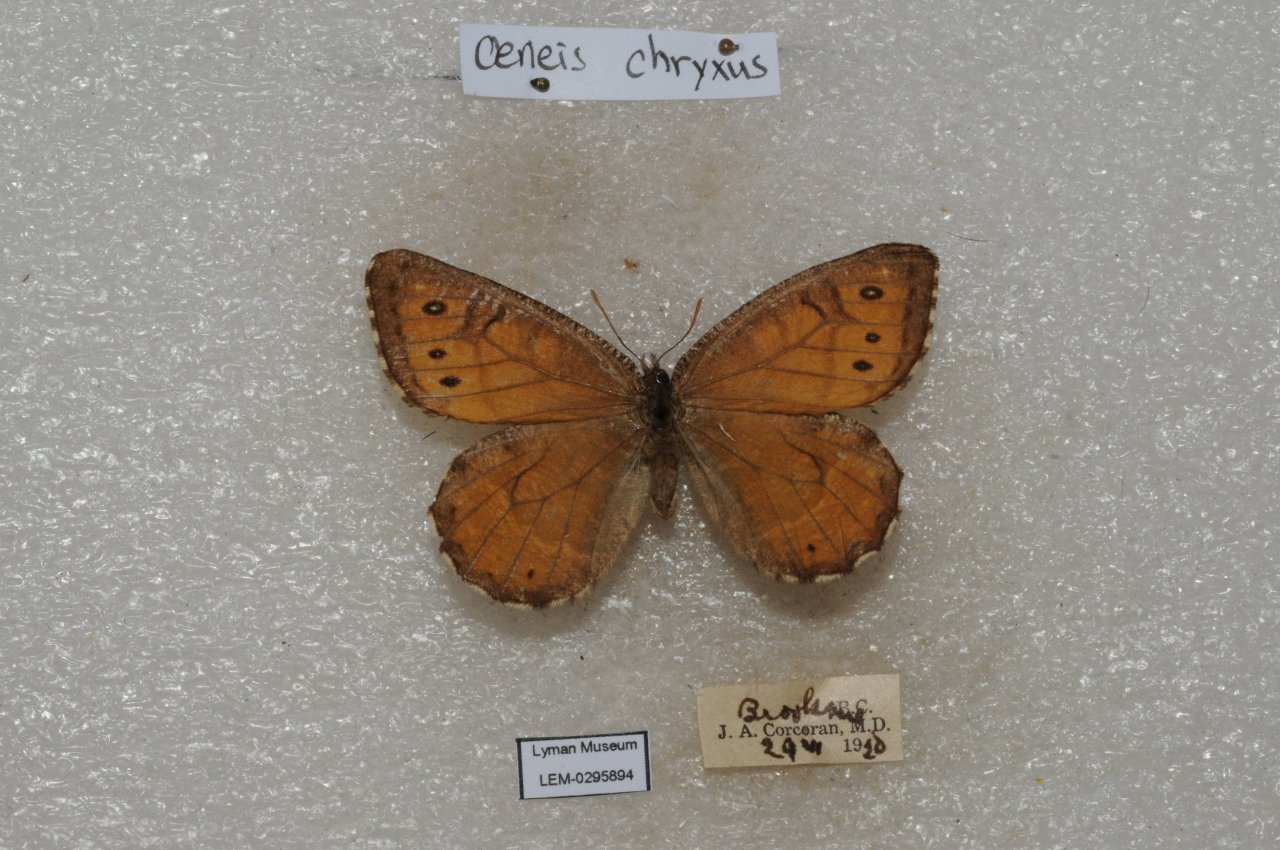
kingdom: Animalia
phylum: Arthropoda
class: Insecta
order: Lepidoptera
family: Nymphalidae
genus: Oeneis
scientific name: Oeneis chryxus
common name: Chryxus Arctic
